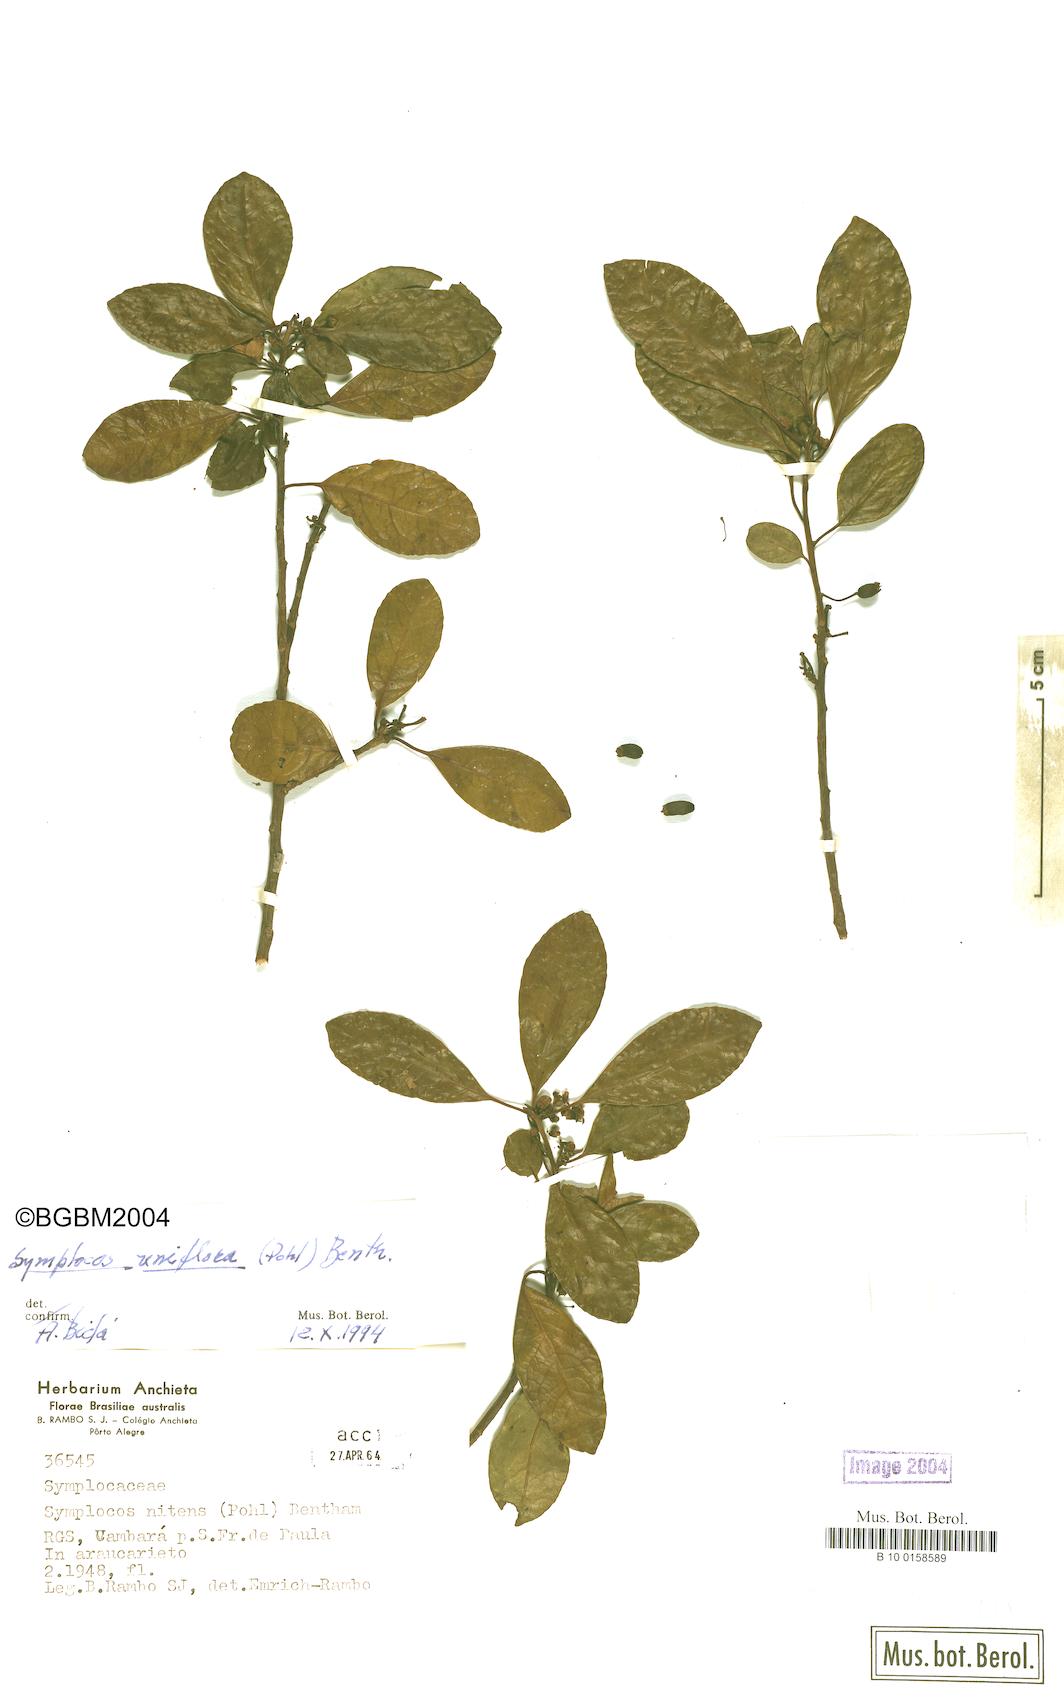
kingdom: Plantae
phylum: Tracheophyta
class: Magnoliopsida
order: Ericales
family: Symplocaceae
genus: Symplocos
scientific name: Symplocos uniflora
